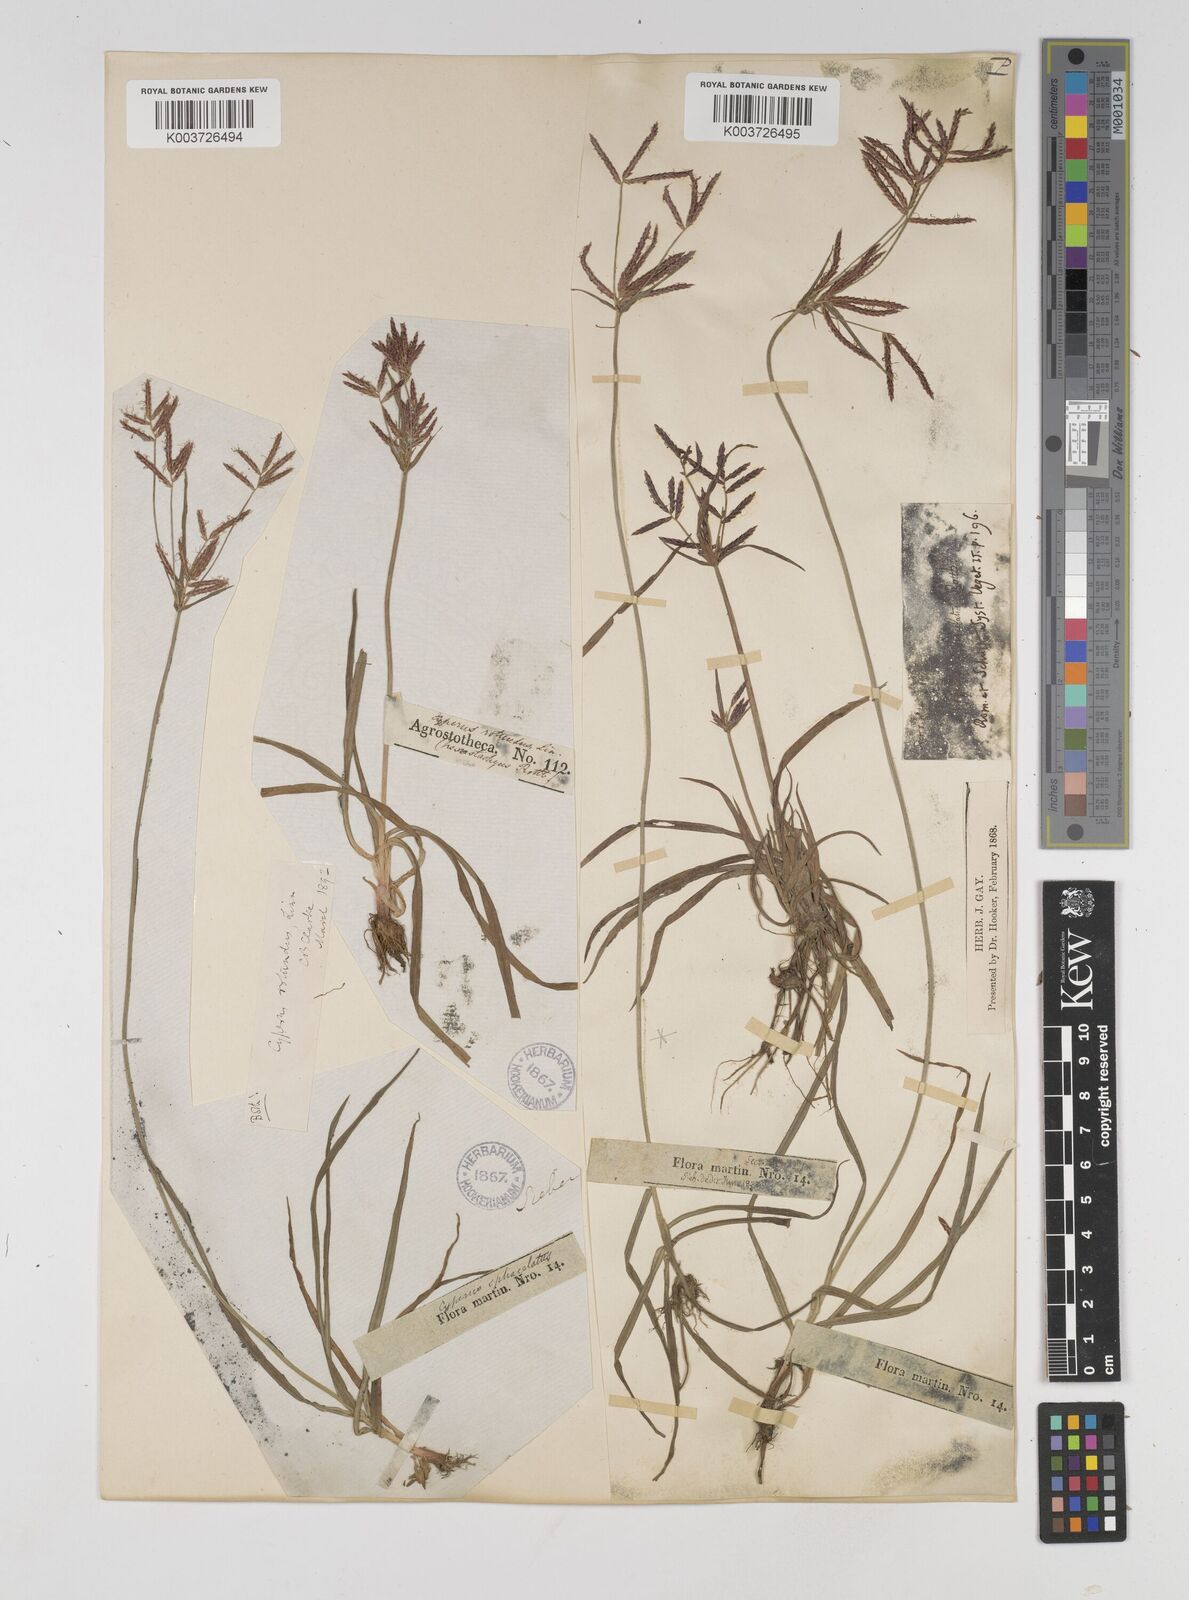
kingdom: Plantae
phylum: Tracheophyta
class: Liliopsida
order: Poales
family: Cyperaceae
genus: Cyperus
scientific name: Cyperus rotundus
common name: Nutgrass
